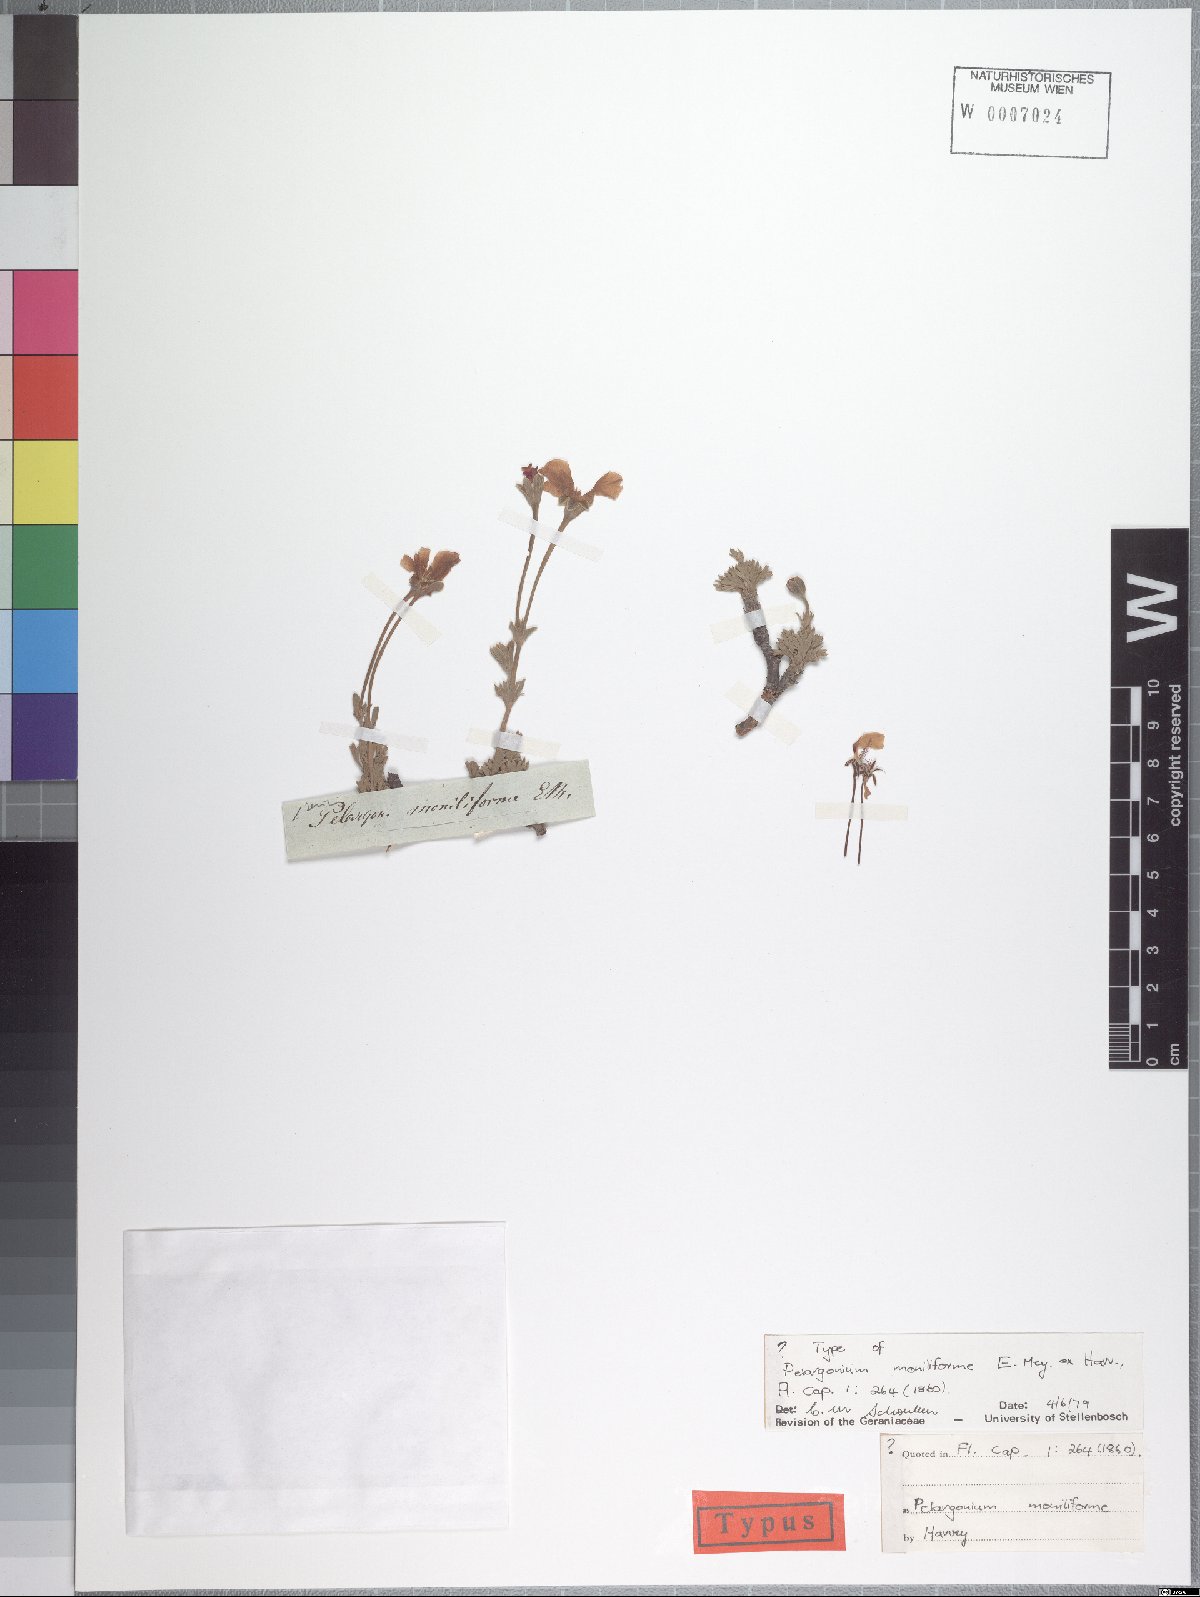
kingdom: Plantae
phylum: Tracheophyta
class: Magnoliopsida
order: Geraniales
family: Geraniaceae
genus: Pelargonium
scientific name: Pelargonium moniliforme
